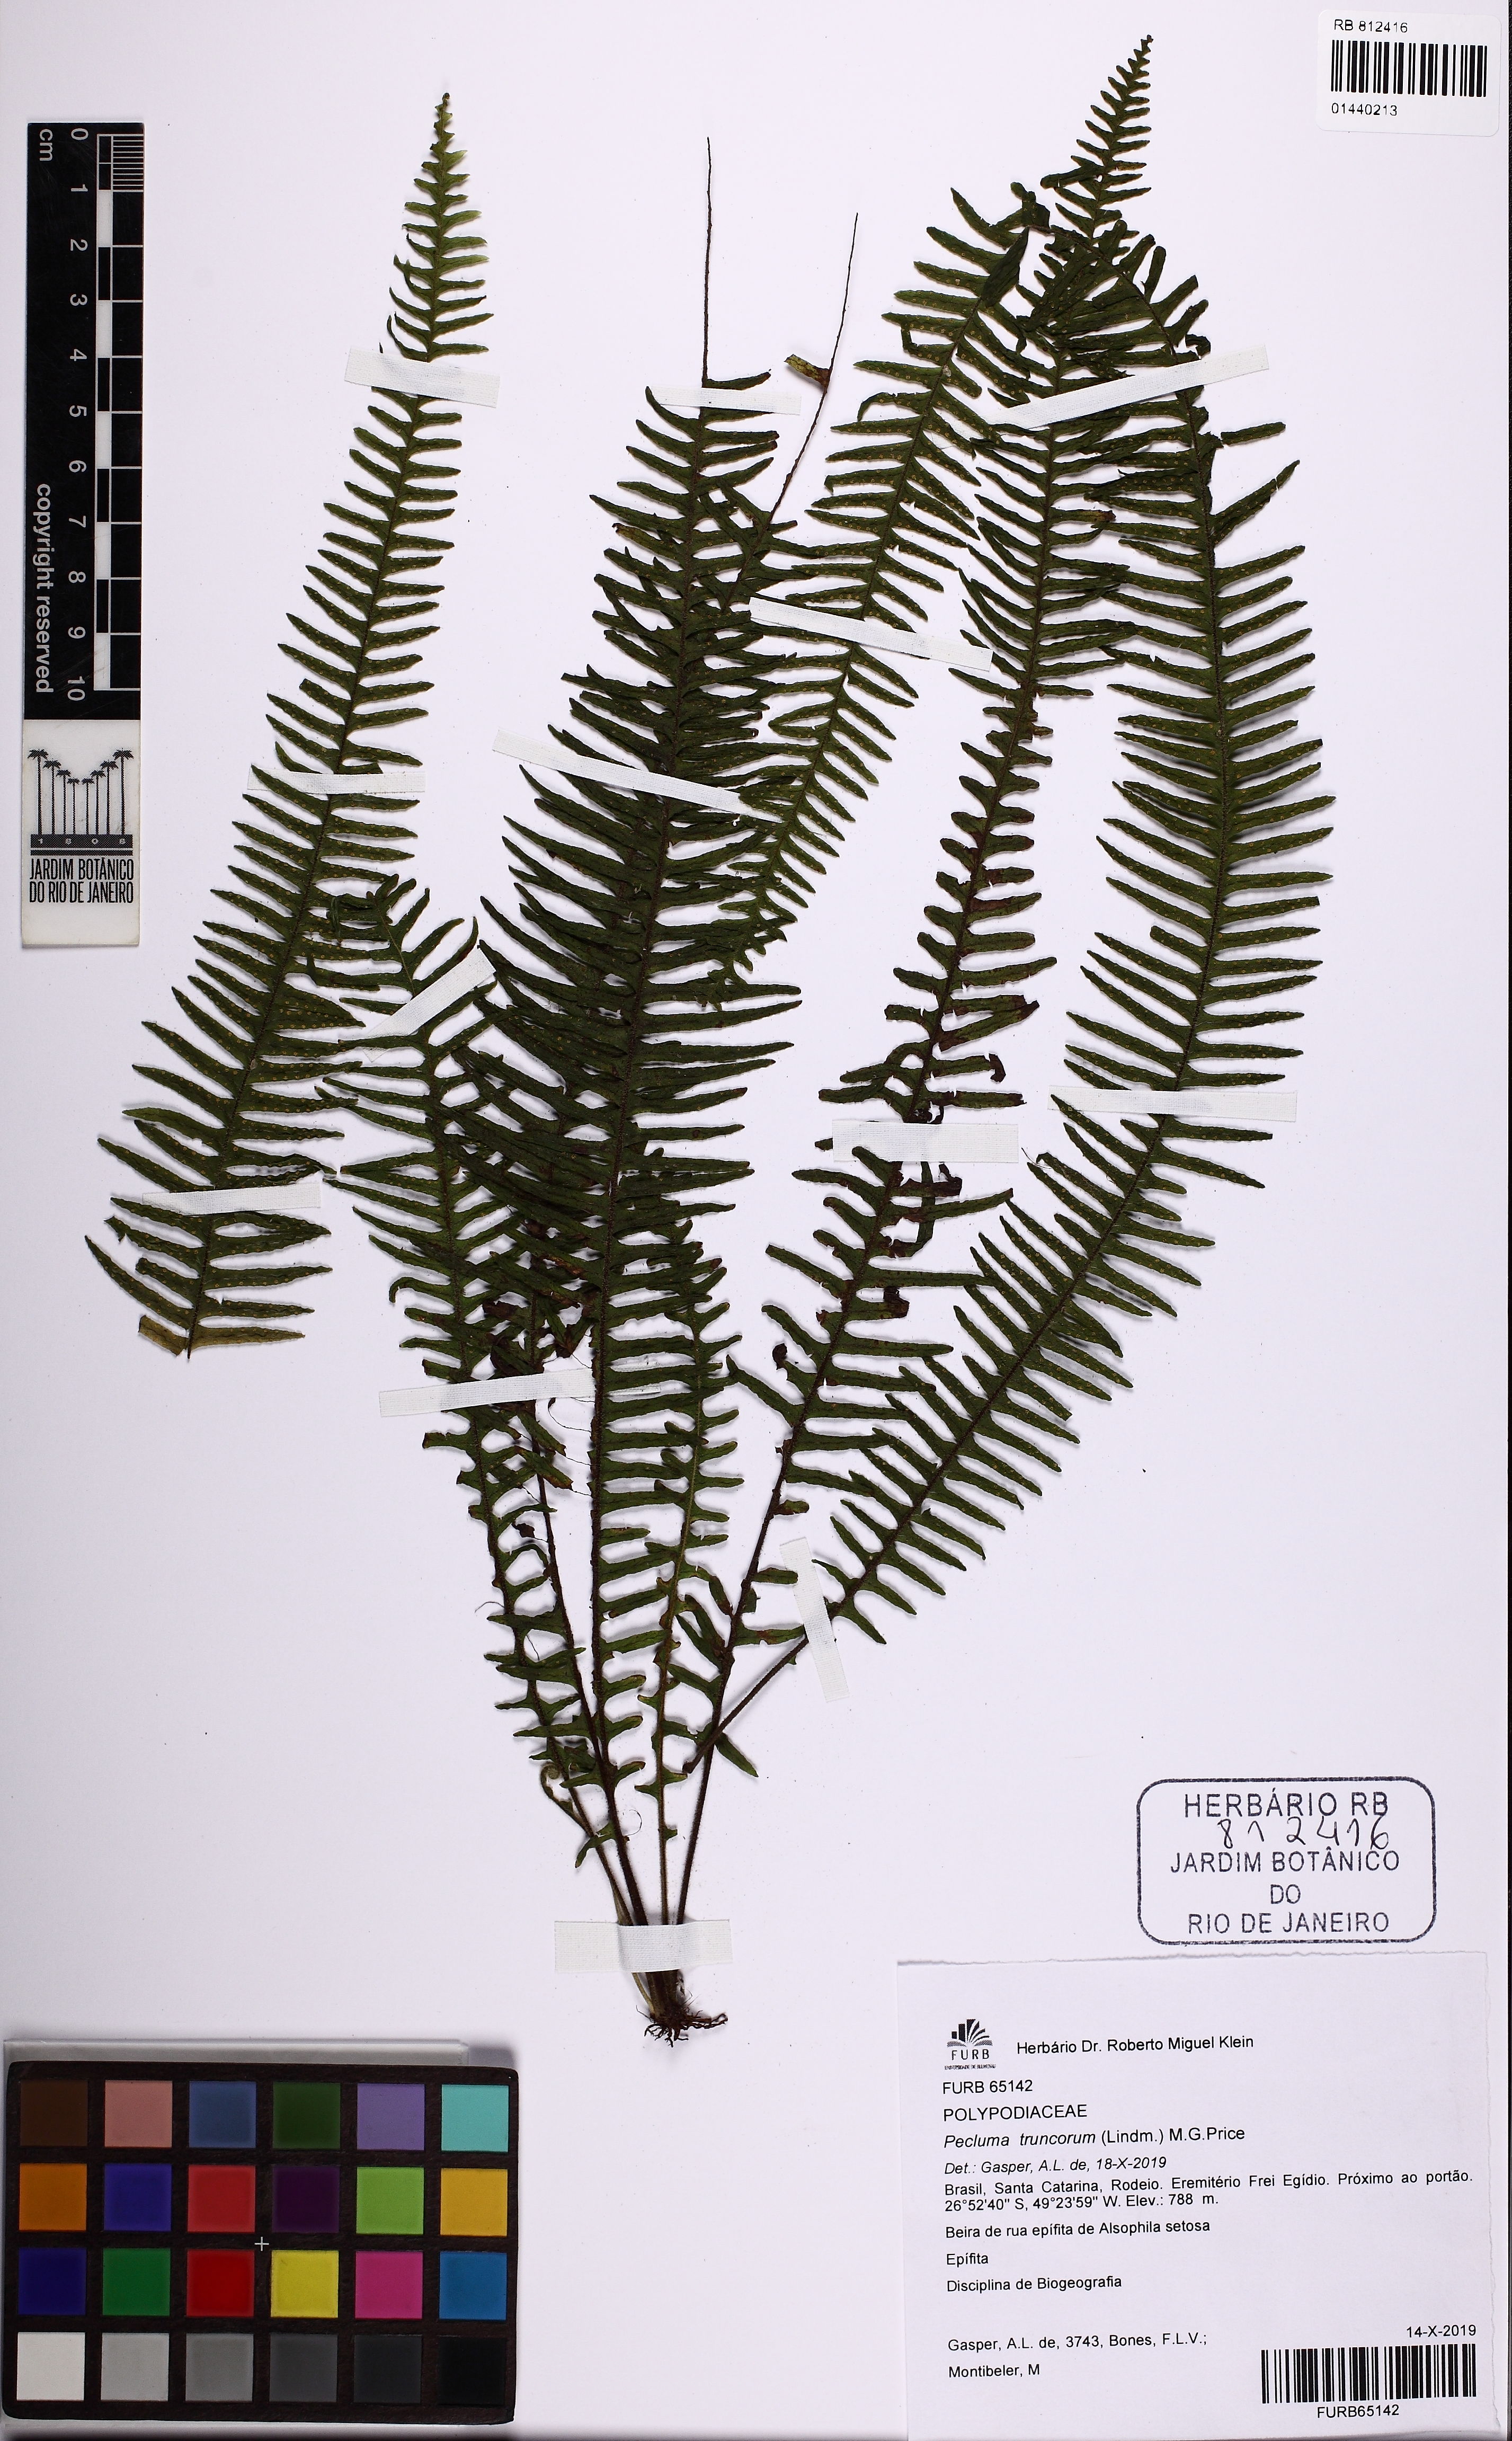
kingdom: Plantae
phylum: Tracheophyta
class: Polypodiopsida
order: Polypodiales
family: Polypodiaceae
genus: Pecluma
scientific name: Pecluma truncorum
